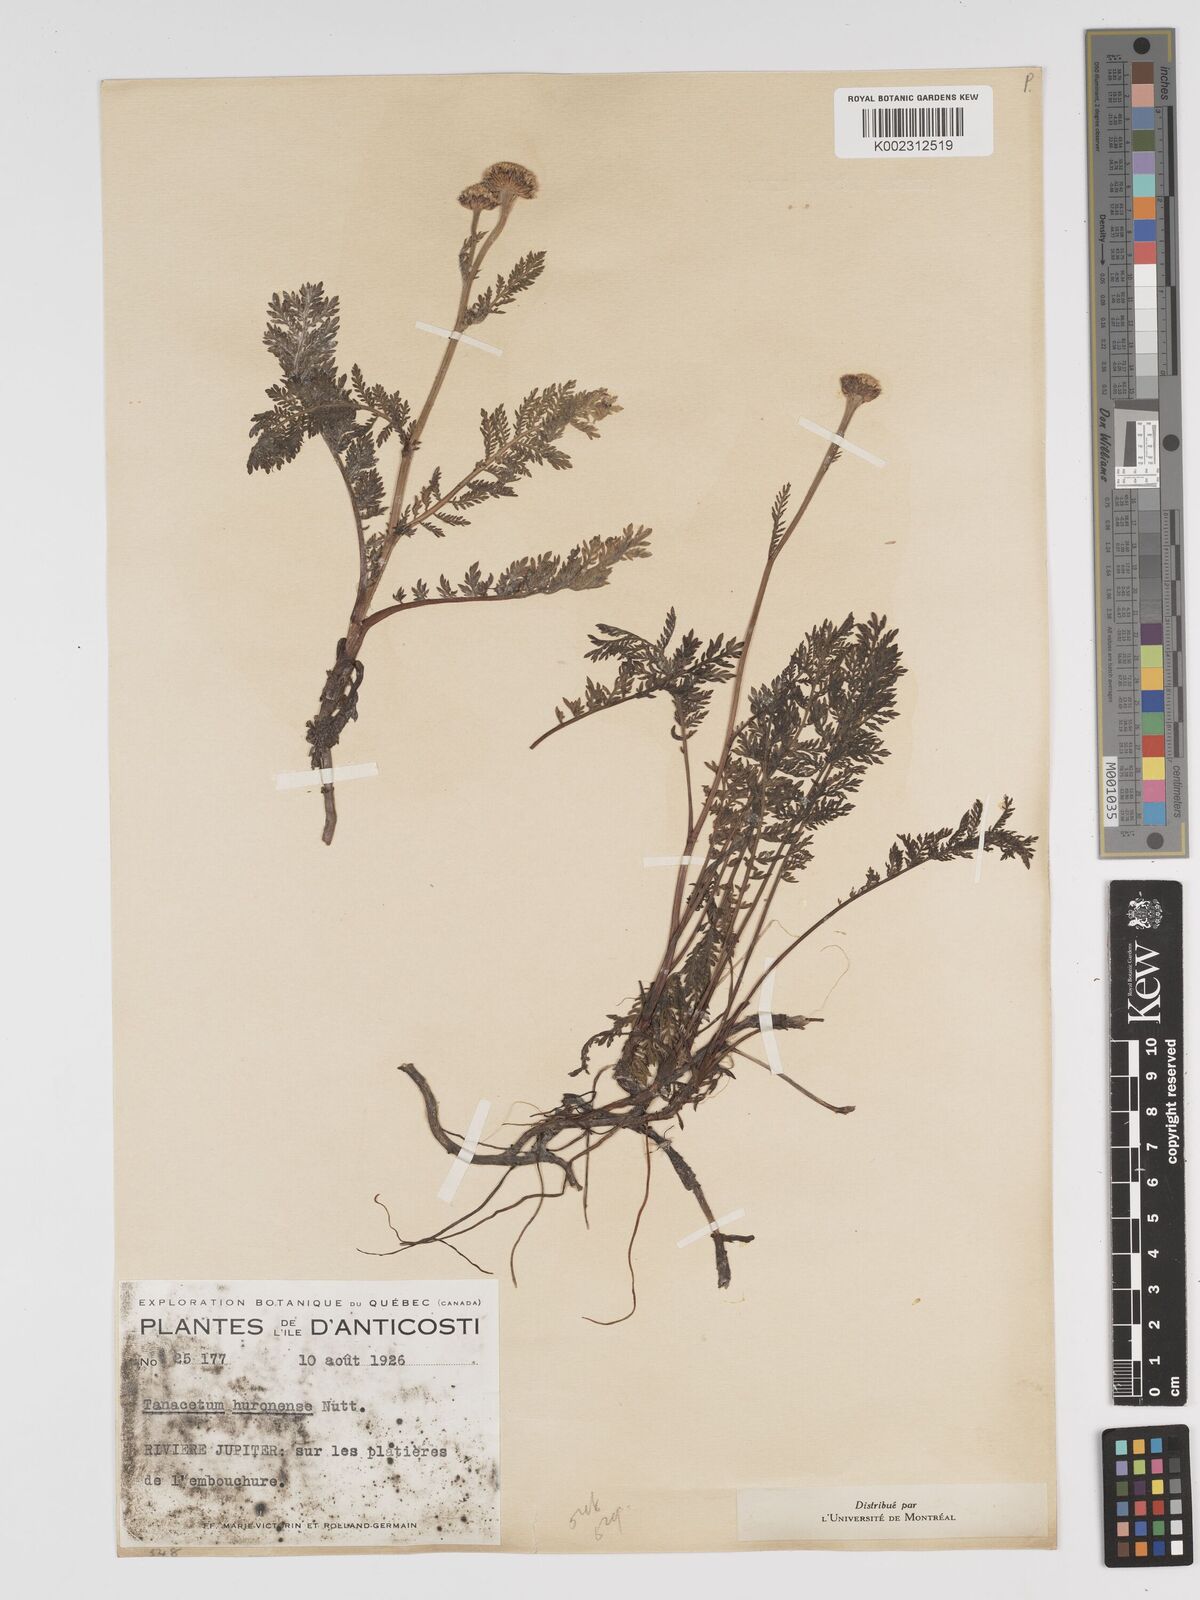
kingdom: Plantae
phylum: Tracheophyta
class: Magnoliopsida
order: Asterales
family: Asteraceae
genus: Tanacetum
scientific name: Tanacetum bipinnatum
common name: Dwarf tansy
